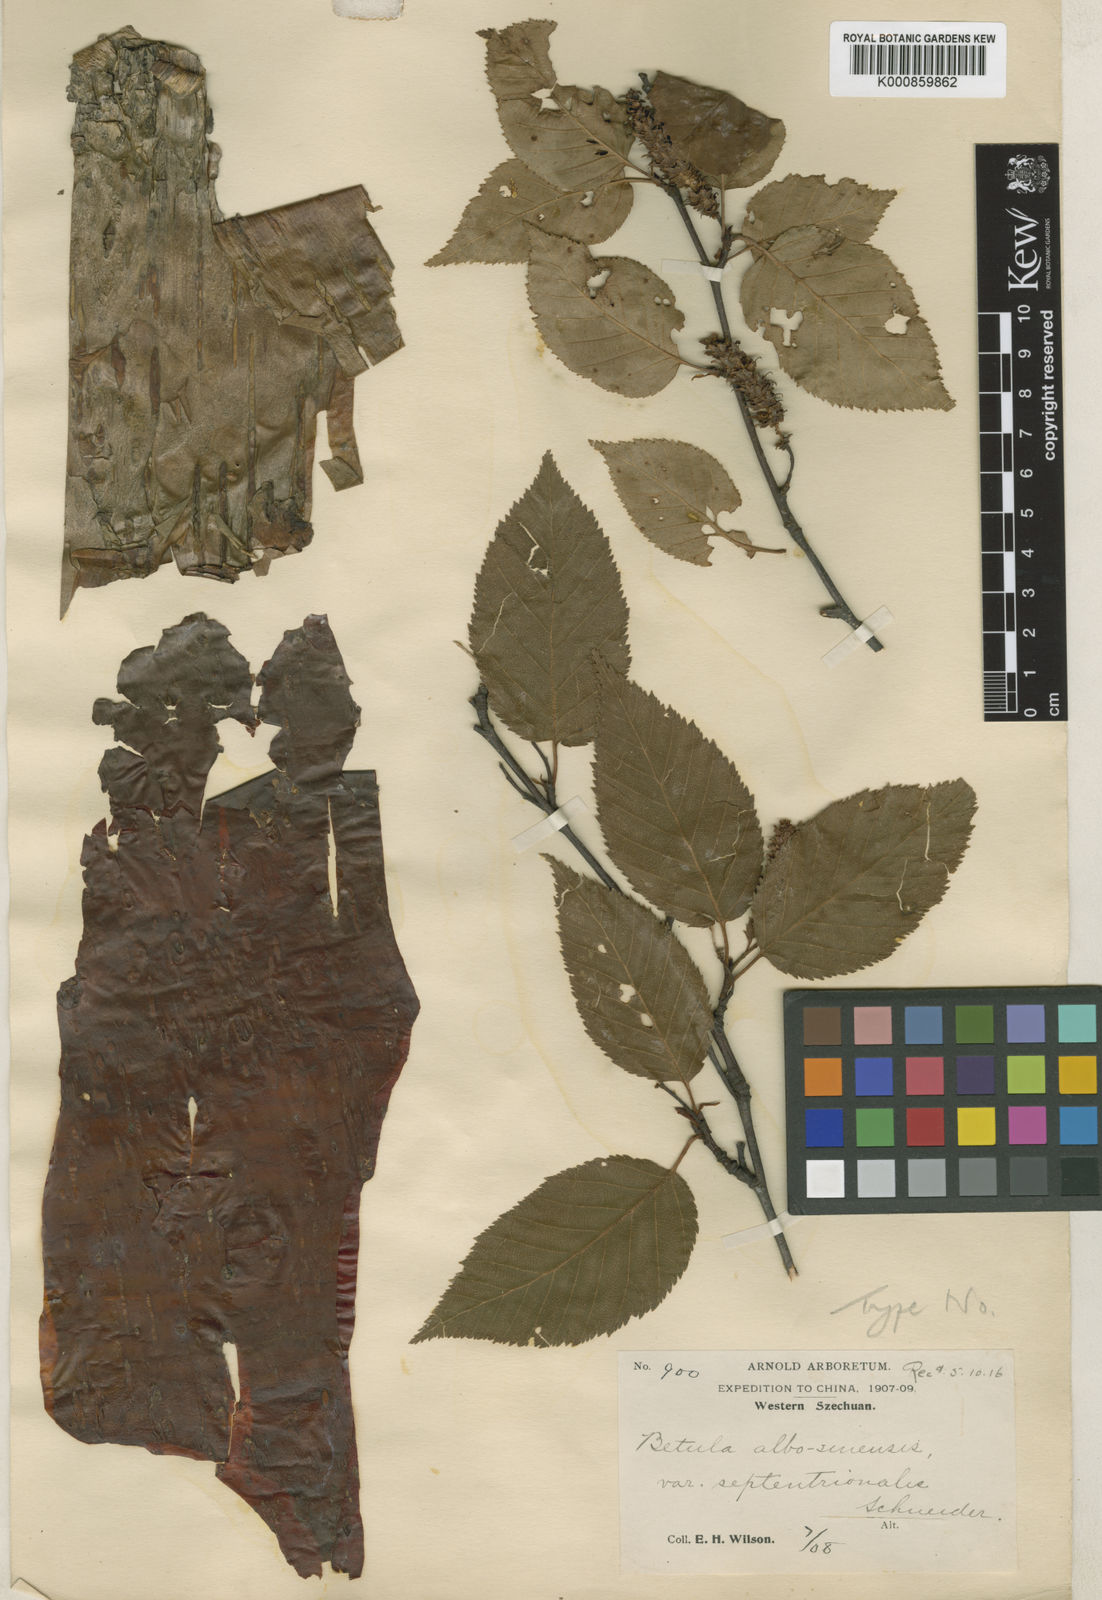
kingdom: Plantae
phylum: Tracheophyta
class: Magnoliopsida
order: Fagales
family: Betulaceae
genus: Betula
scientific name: Betula utilis
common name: Himalayan birch
